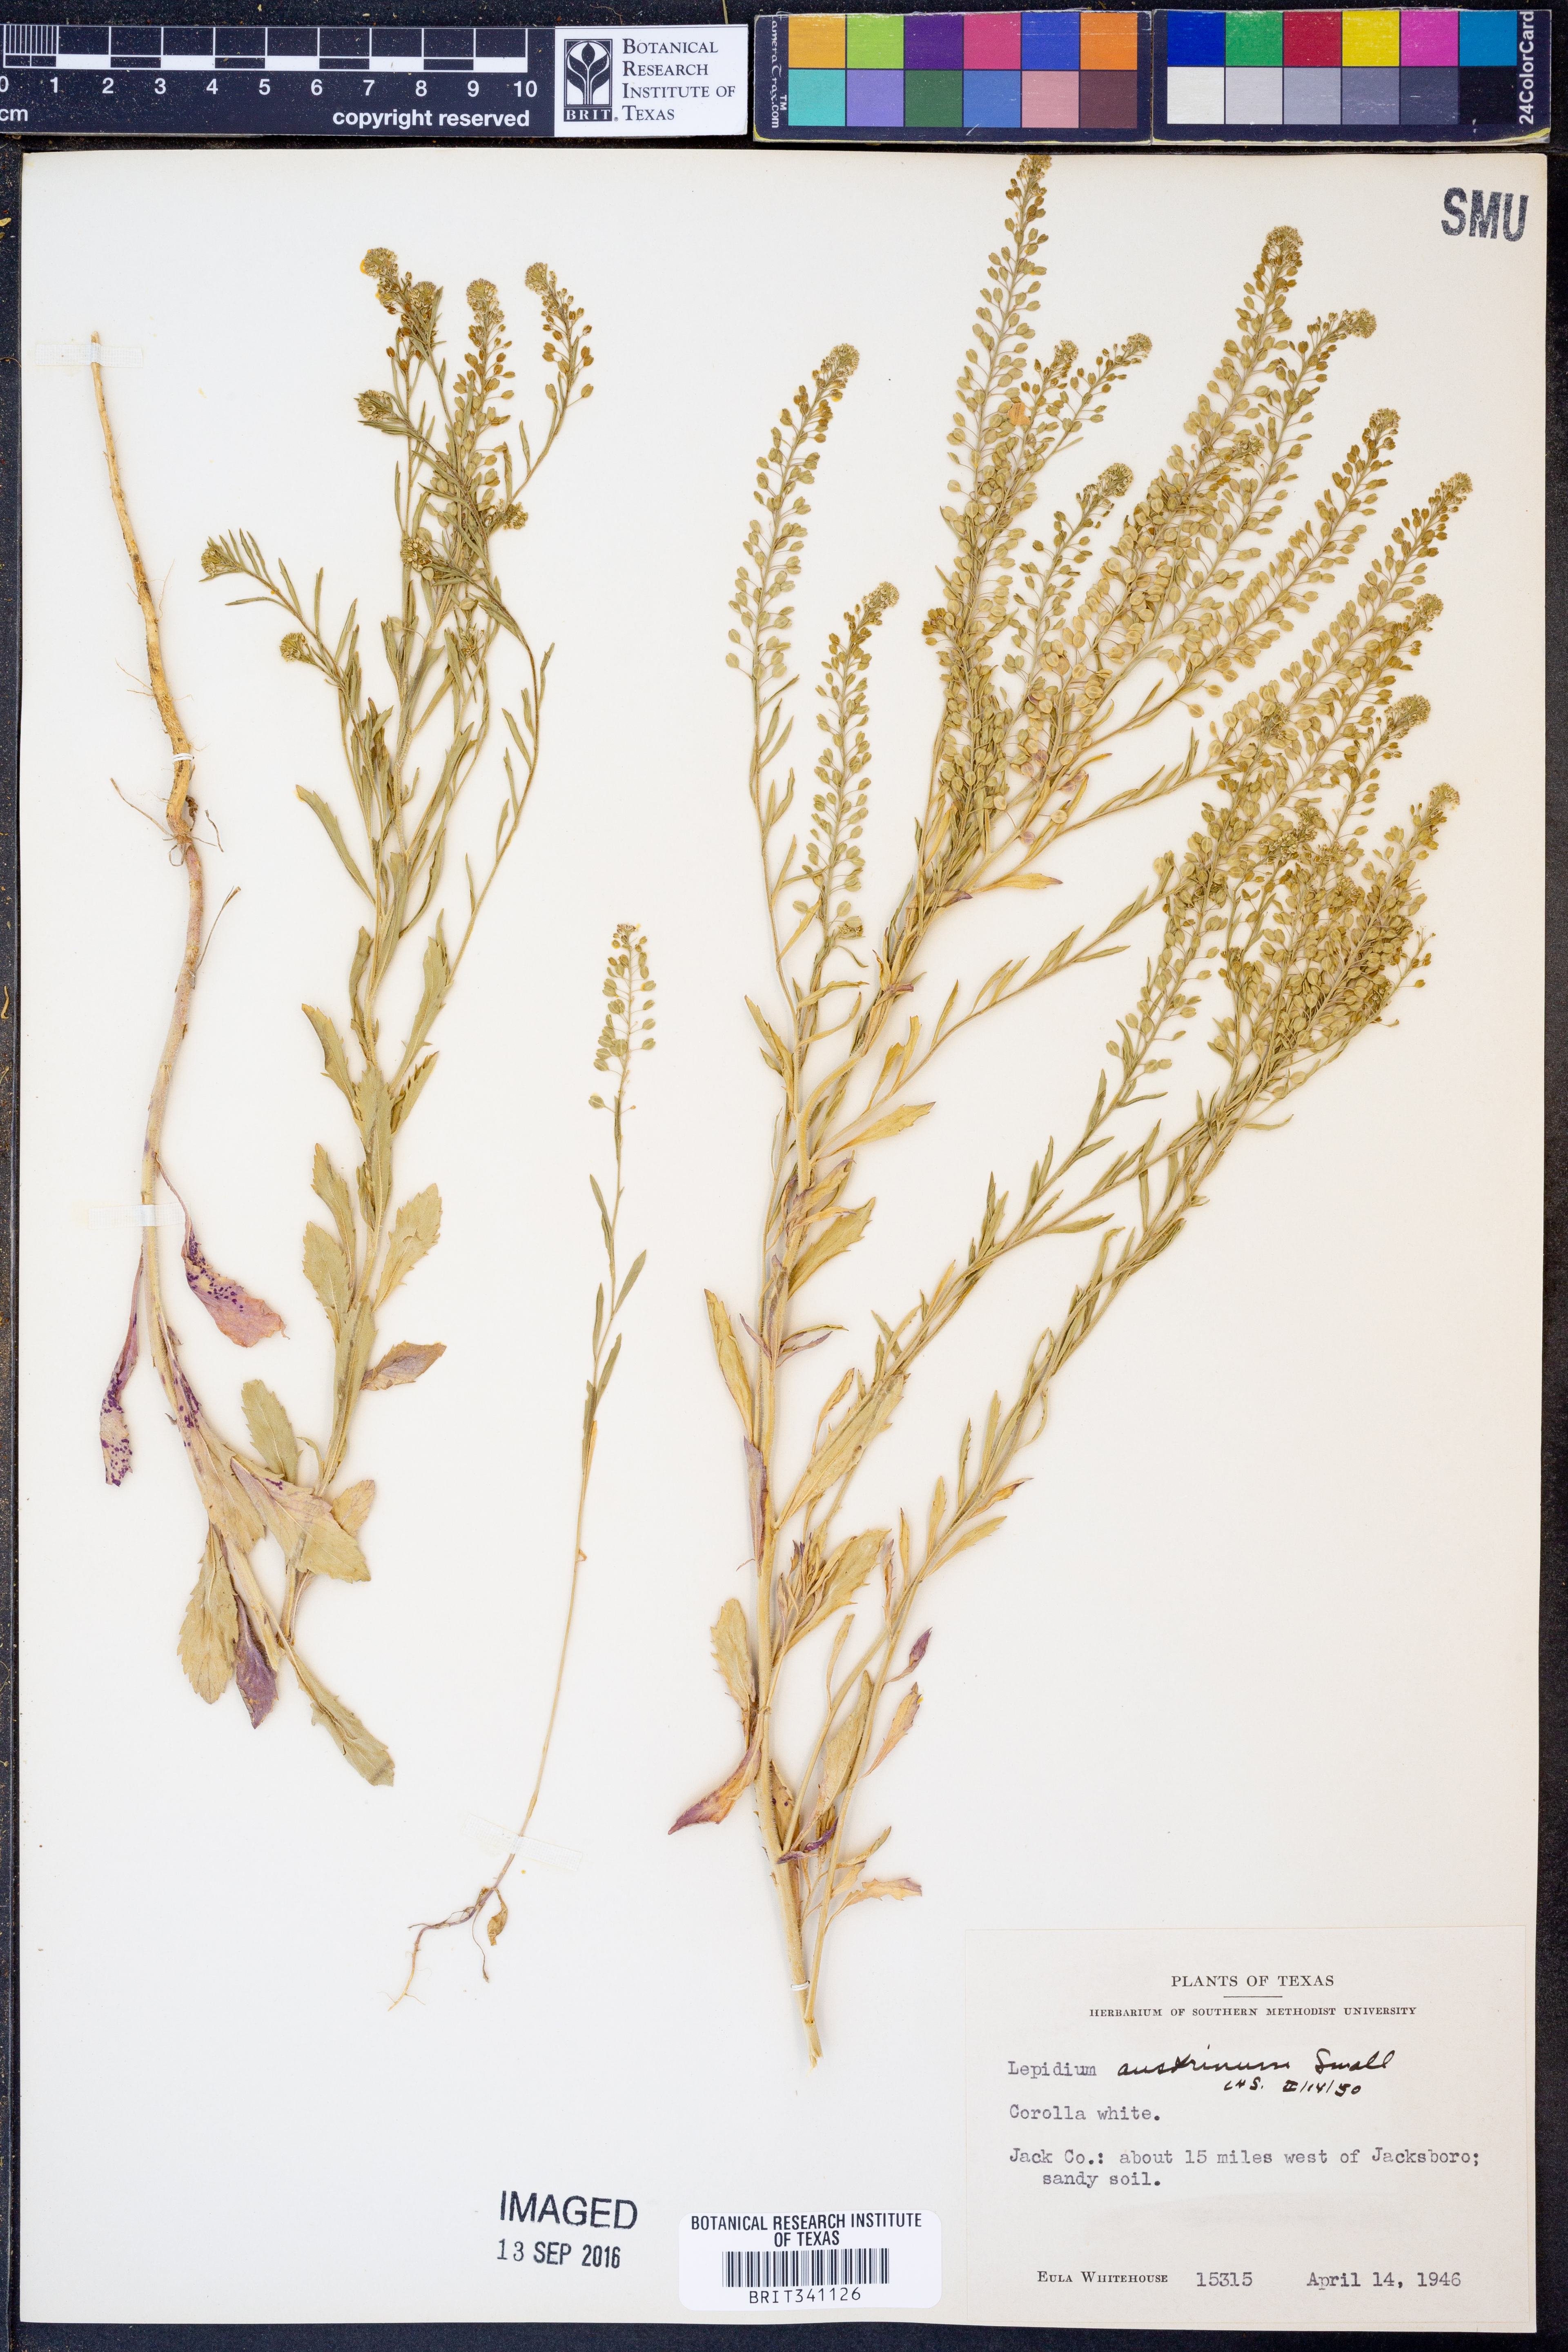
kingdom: Plantae
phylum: Tracheophyta
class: Magnoliopsida
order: Brassicales
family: Brassicaceae
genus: Lepidium
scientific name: Lepidium austrinum
